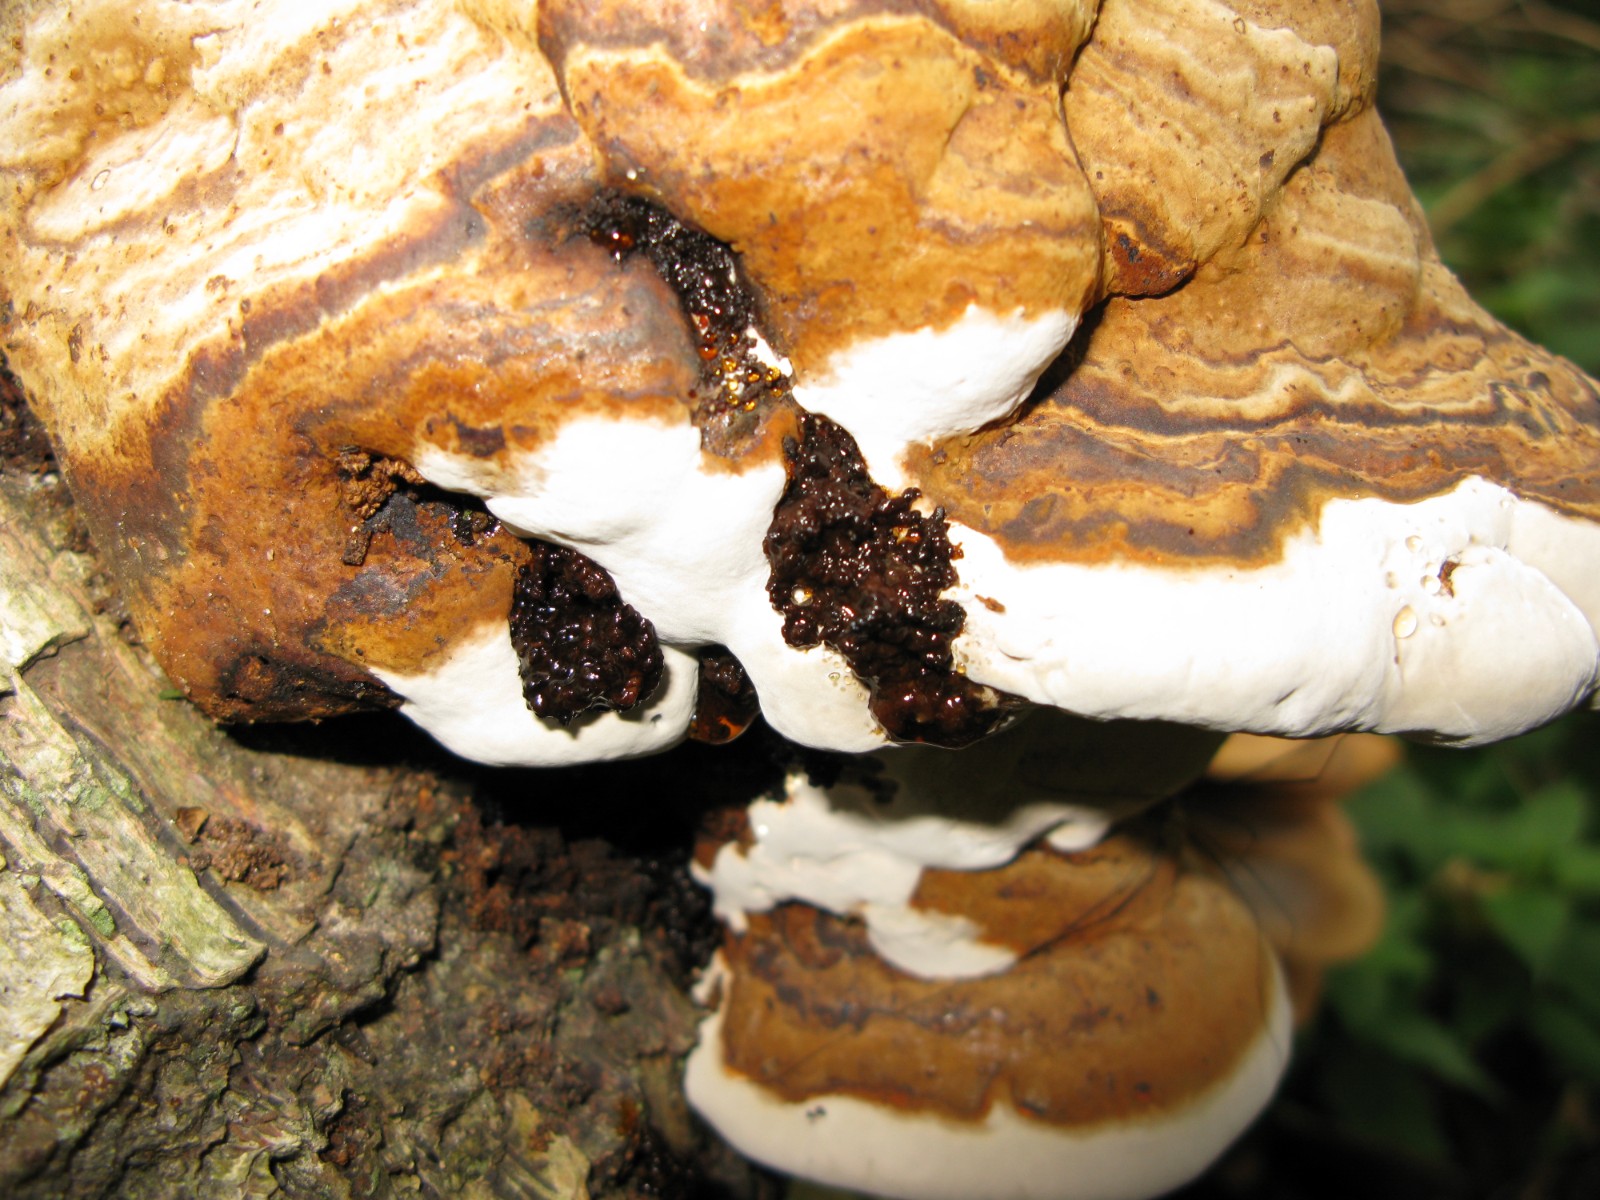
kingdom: Fungi
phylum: Basidiomycota
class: Agaricomycetes
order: Polyporales
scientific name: Polyporales
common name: poresvampordenen
